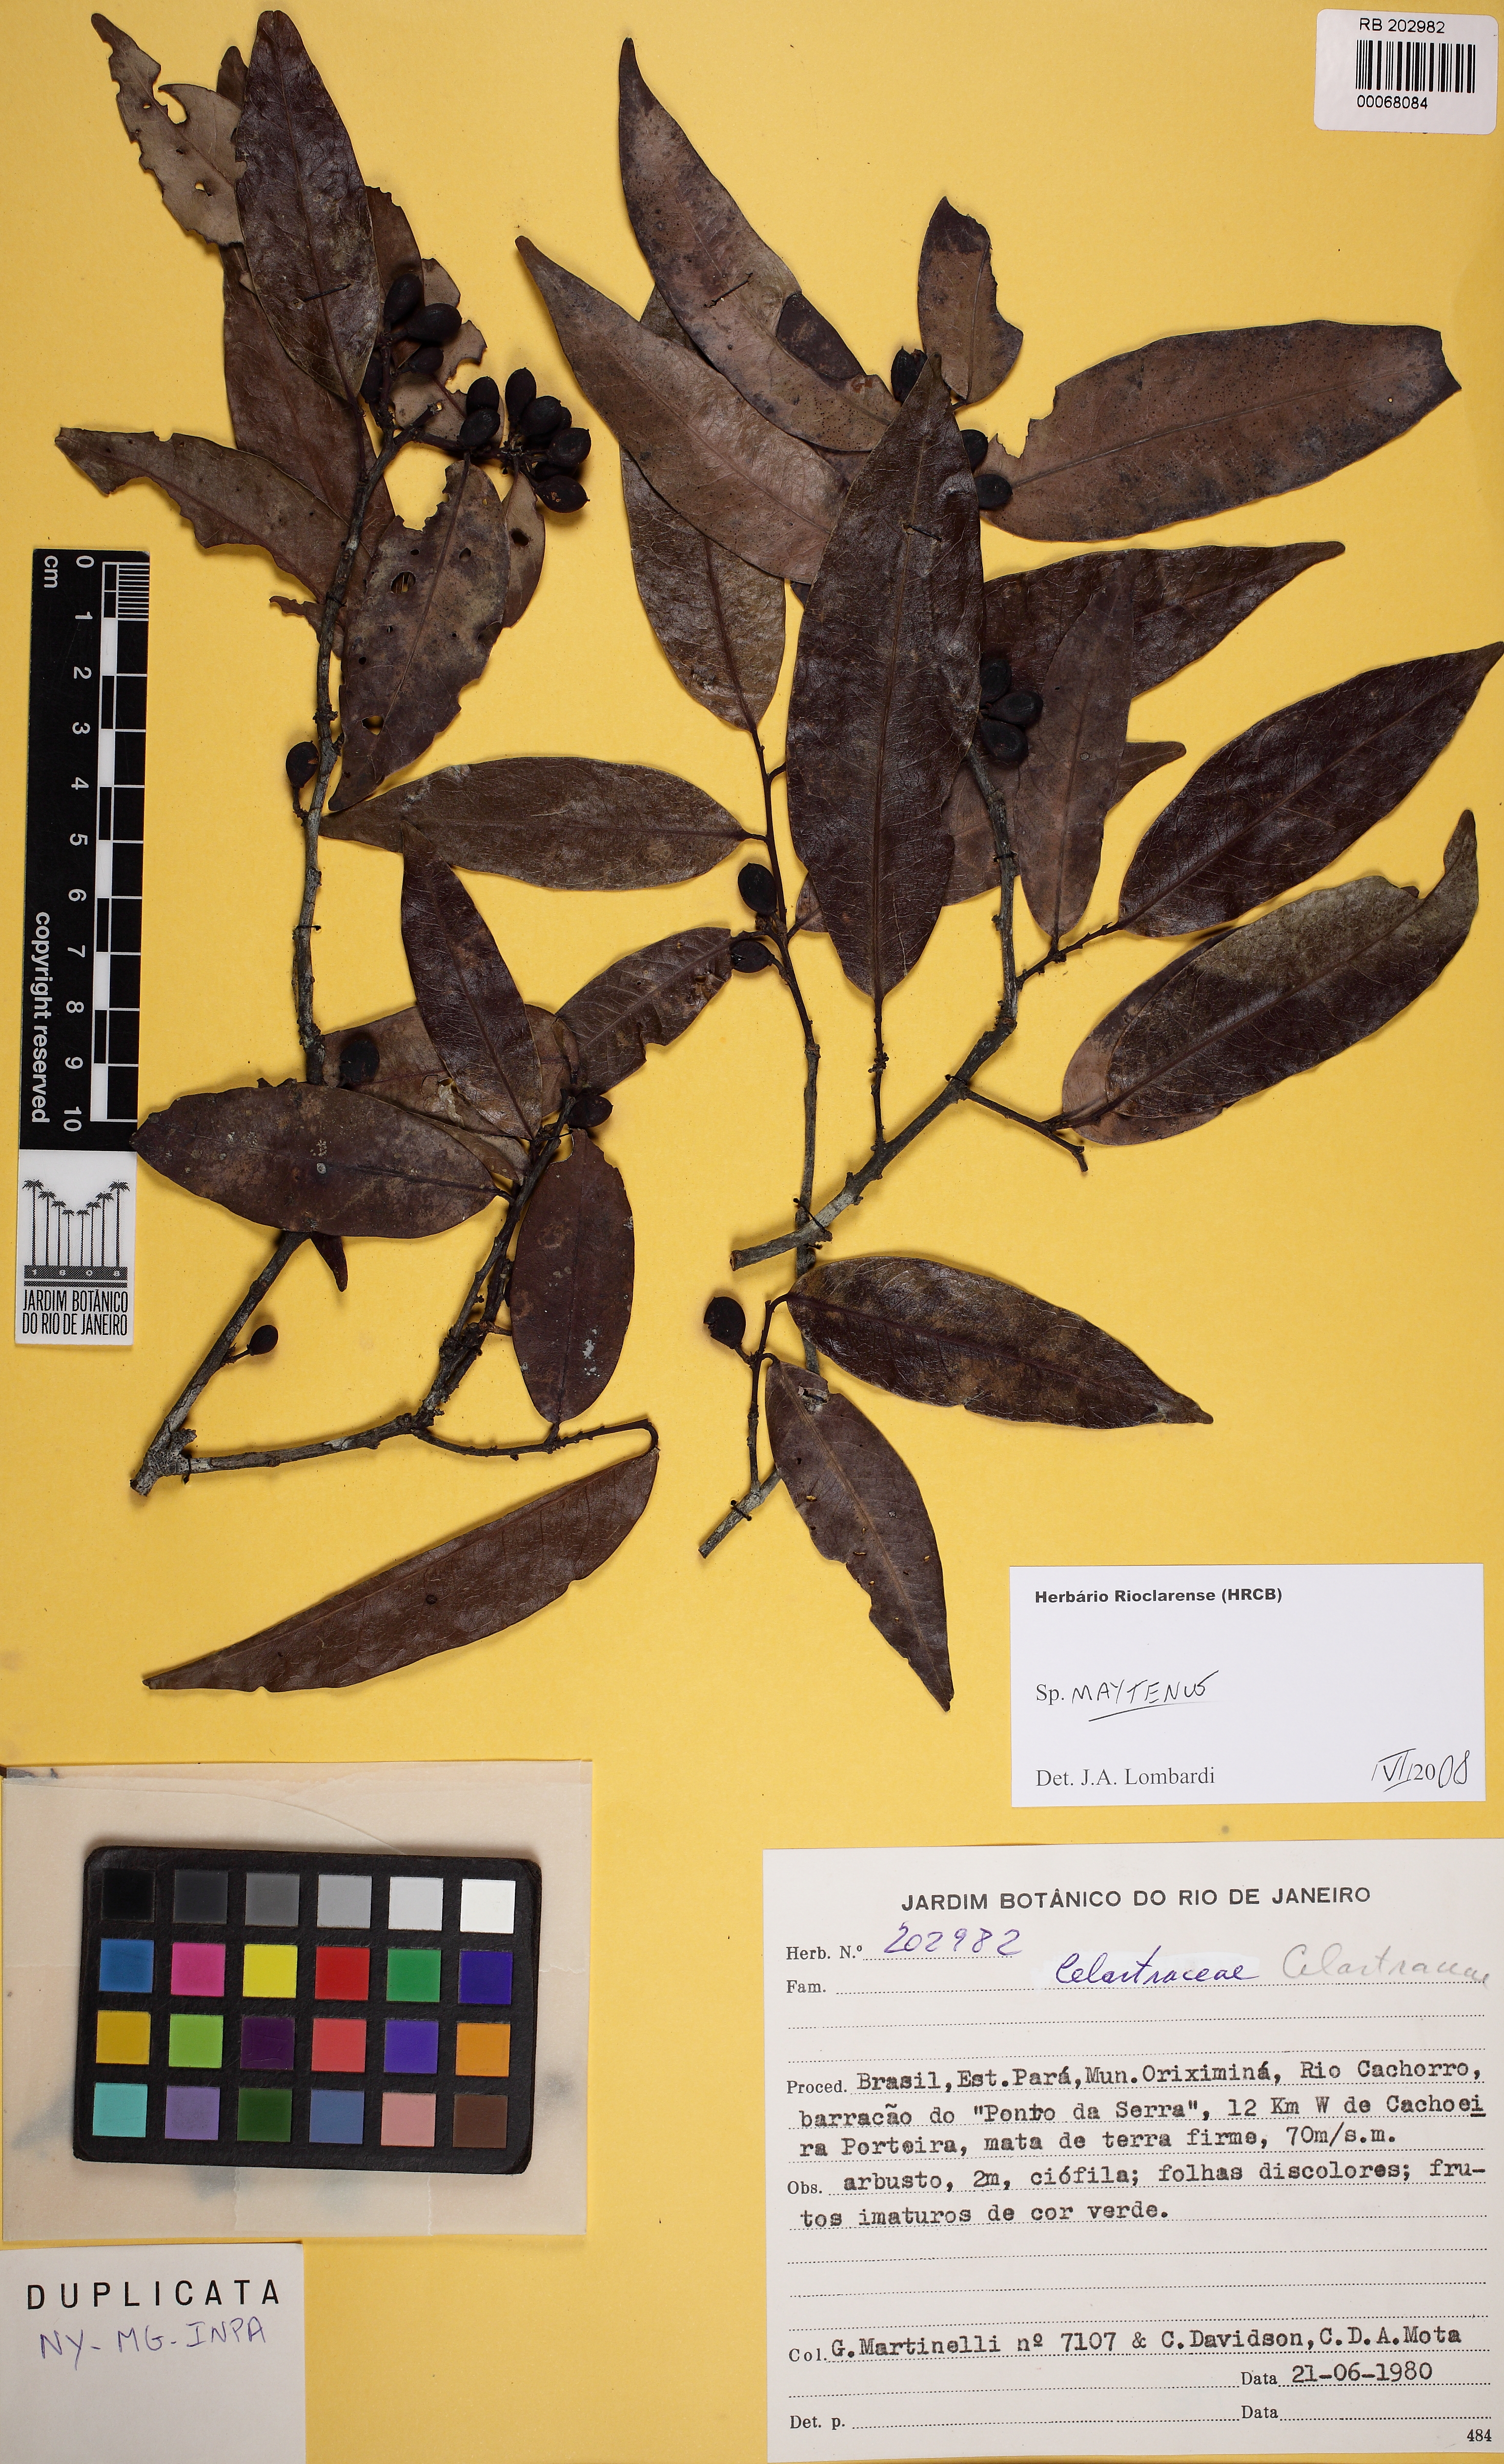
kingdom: Plantae
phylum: Tracheophyta
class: Magnoliopsida
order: Celastrales
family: Celastraceae
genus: Monteverdia
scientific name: Monteverdia guyanensis
